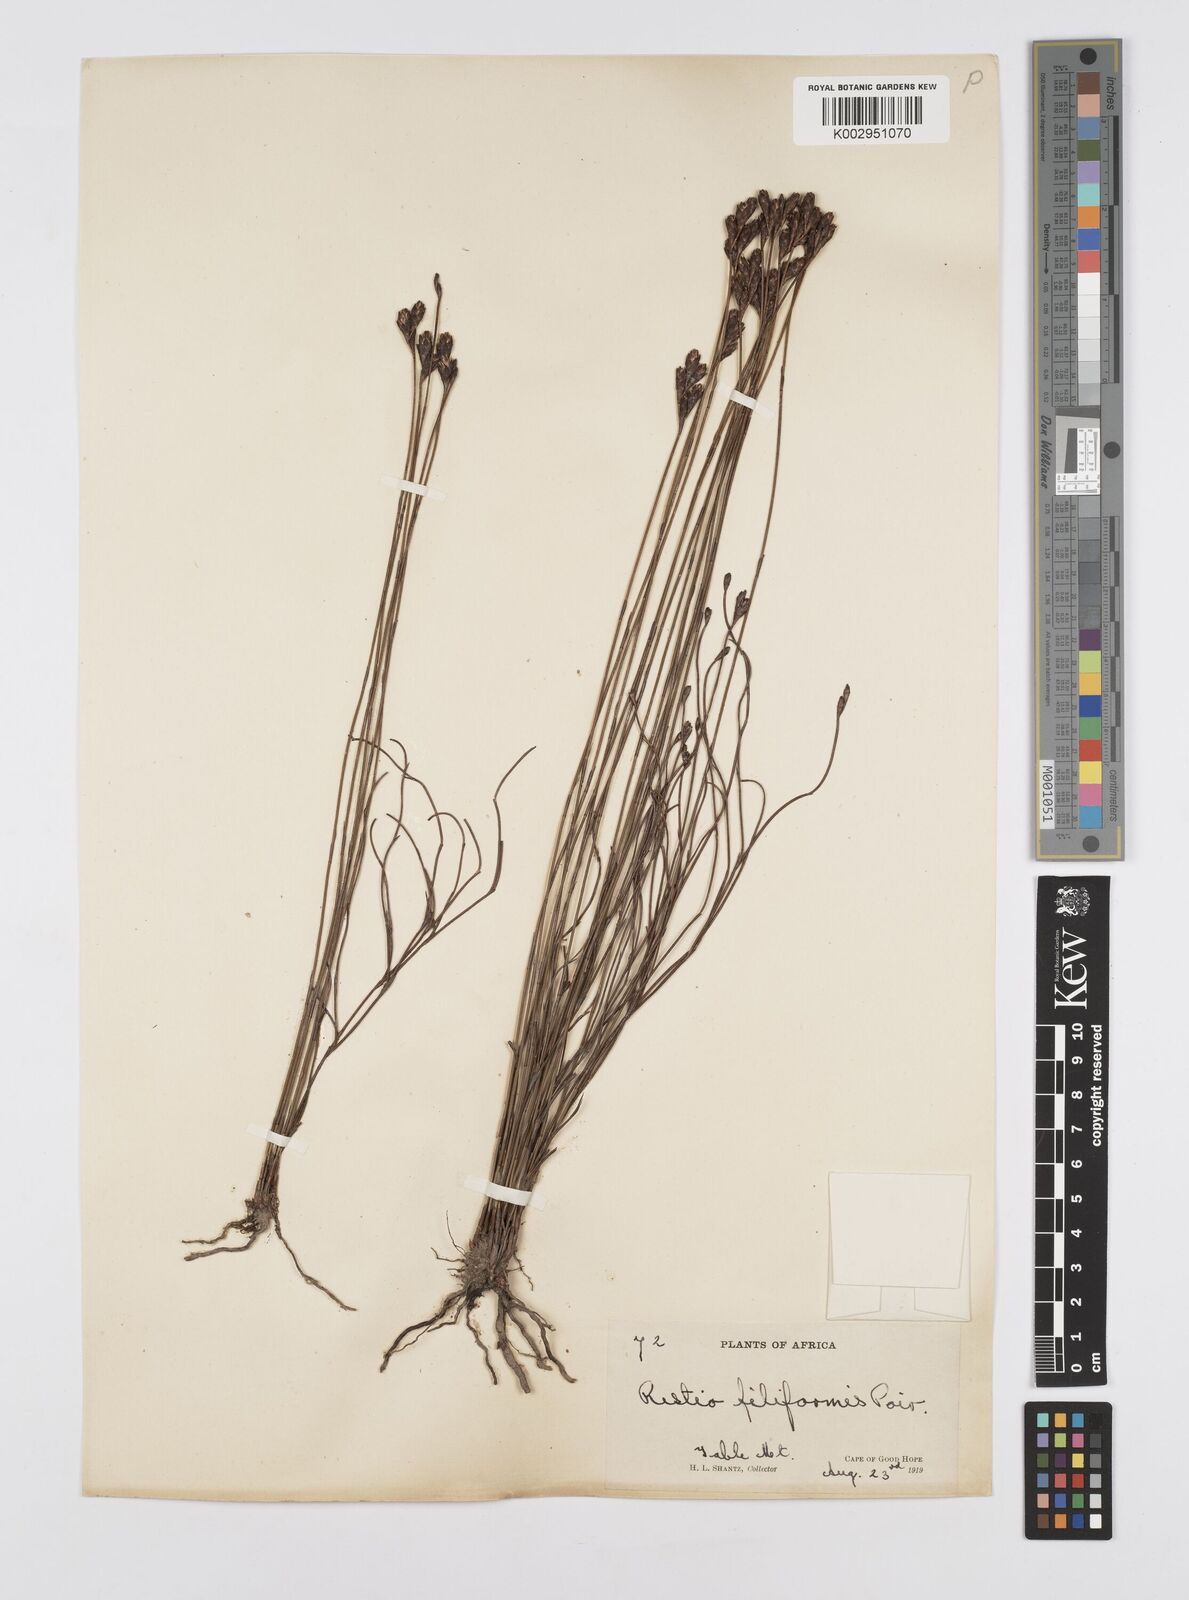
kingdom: Plantae
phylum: Tracheophyta
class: Liliopsida
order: Poales
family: Restionaceae
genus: Restio
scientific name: Restio filiformis
